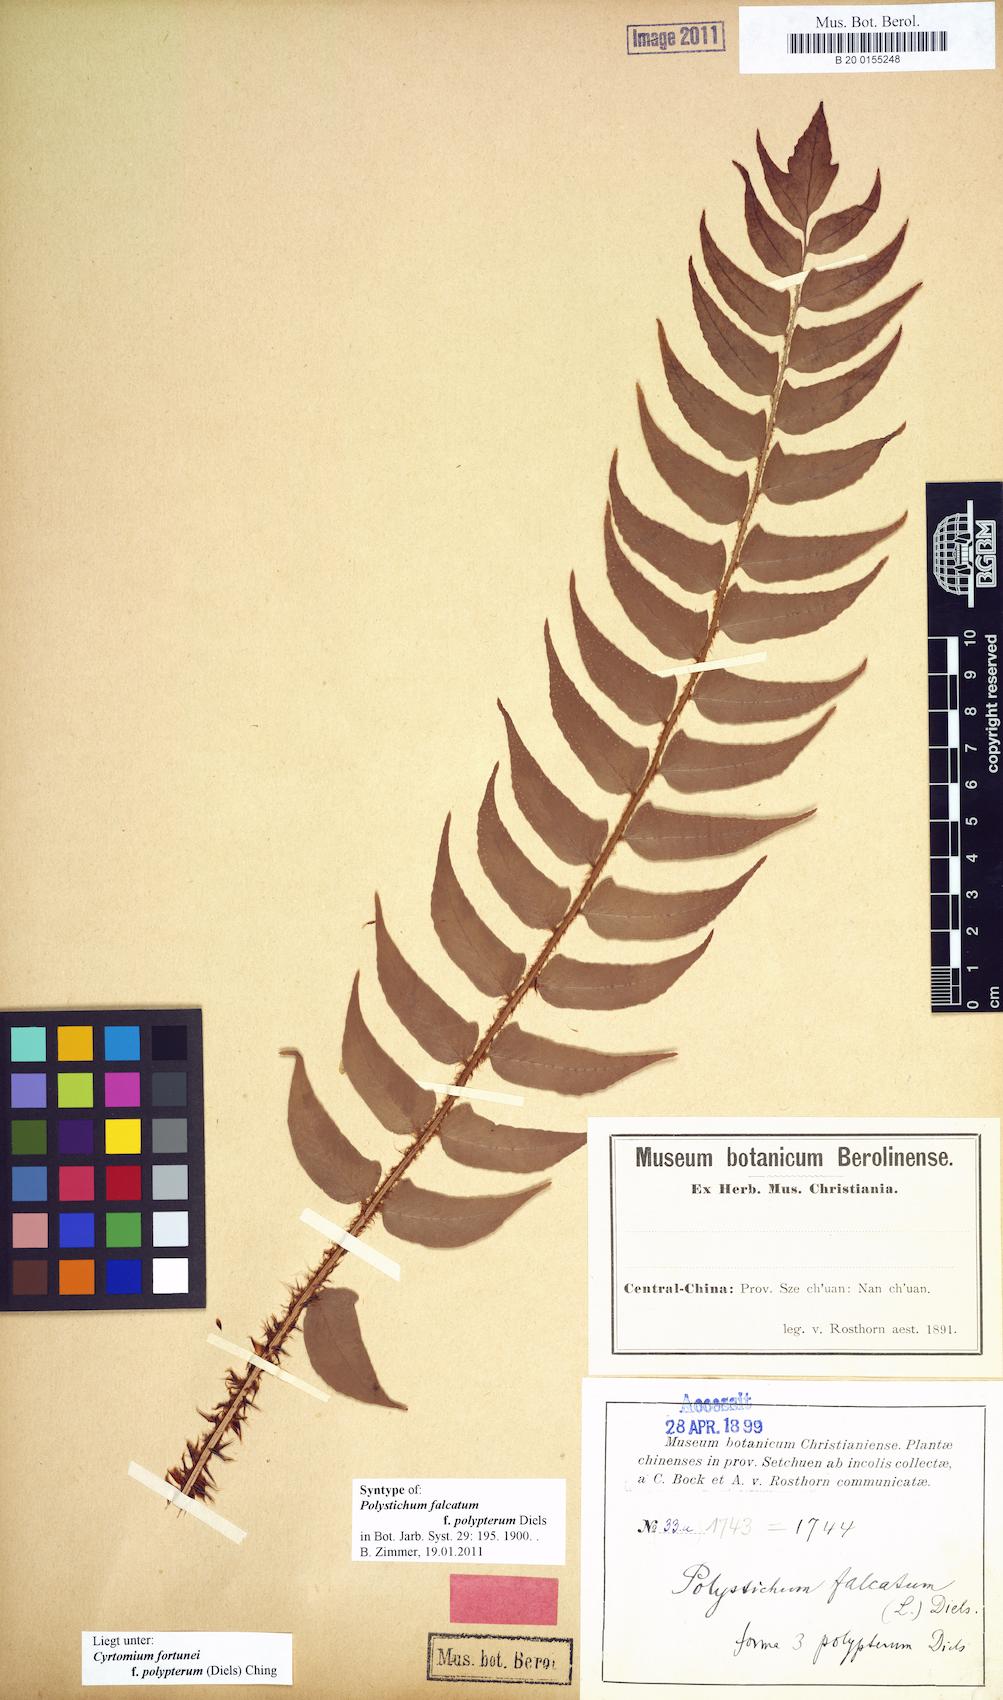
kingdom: Plantae
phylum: Tracheophyta
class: Polypodiopsida
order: Polypodiales
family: Dryopteridaceae
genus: Cyrtomium
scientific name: Cyrtomium fortunei
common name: Asian netvein hollyfern
